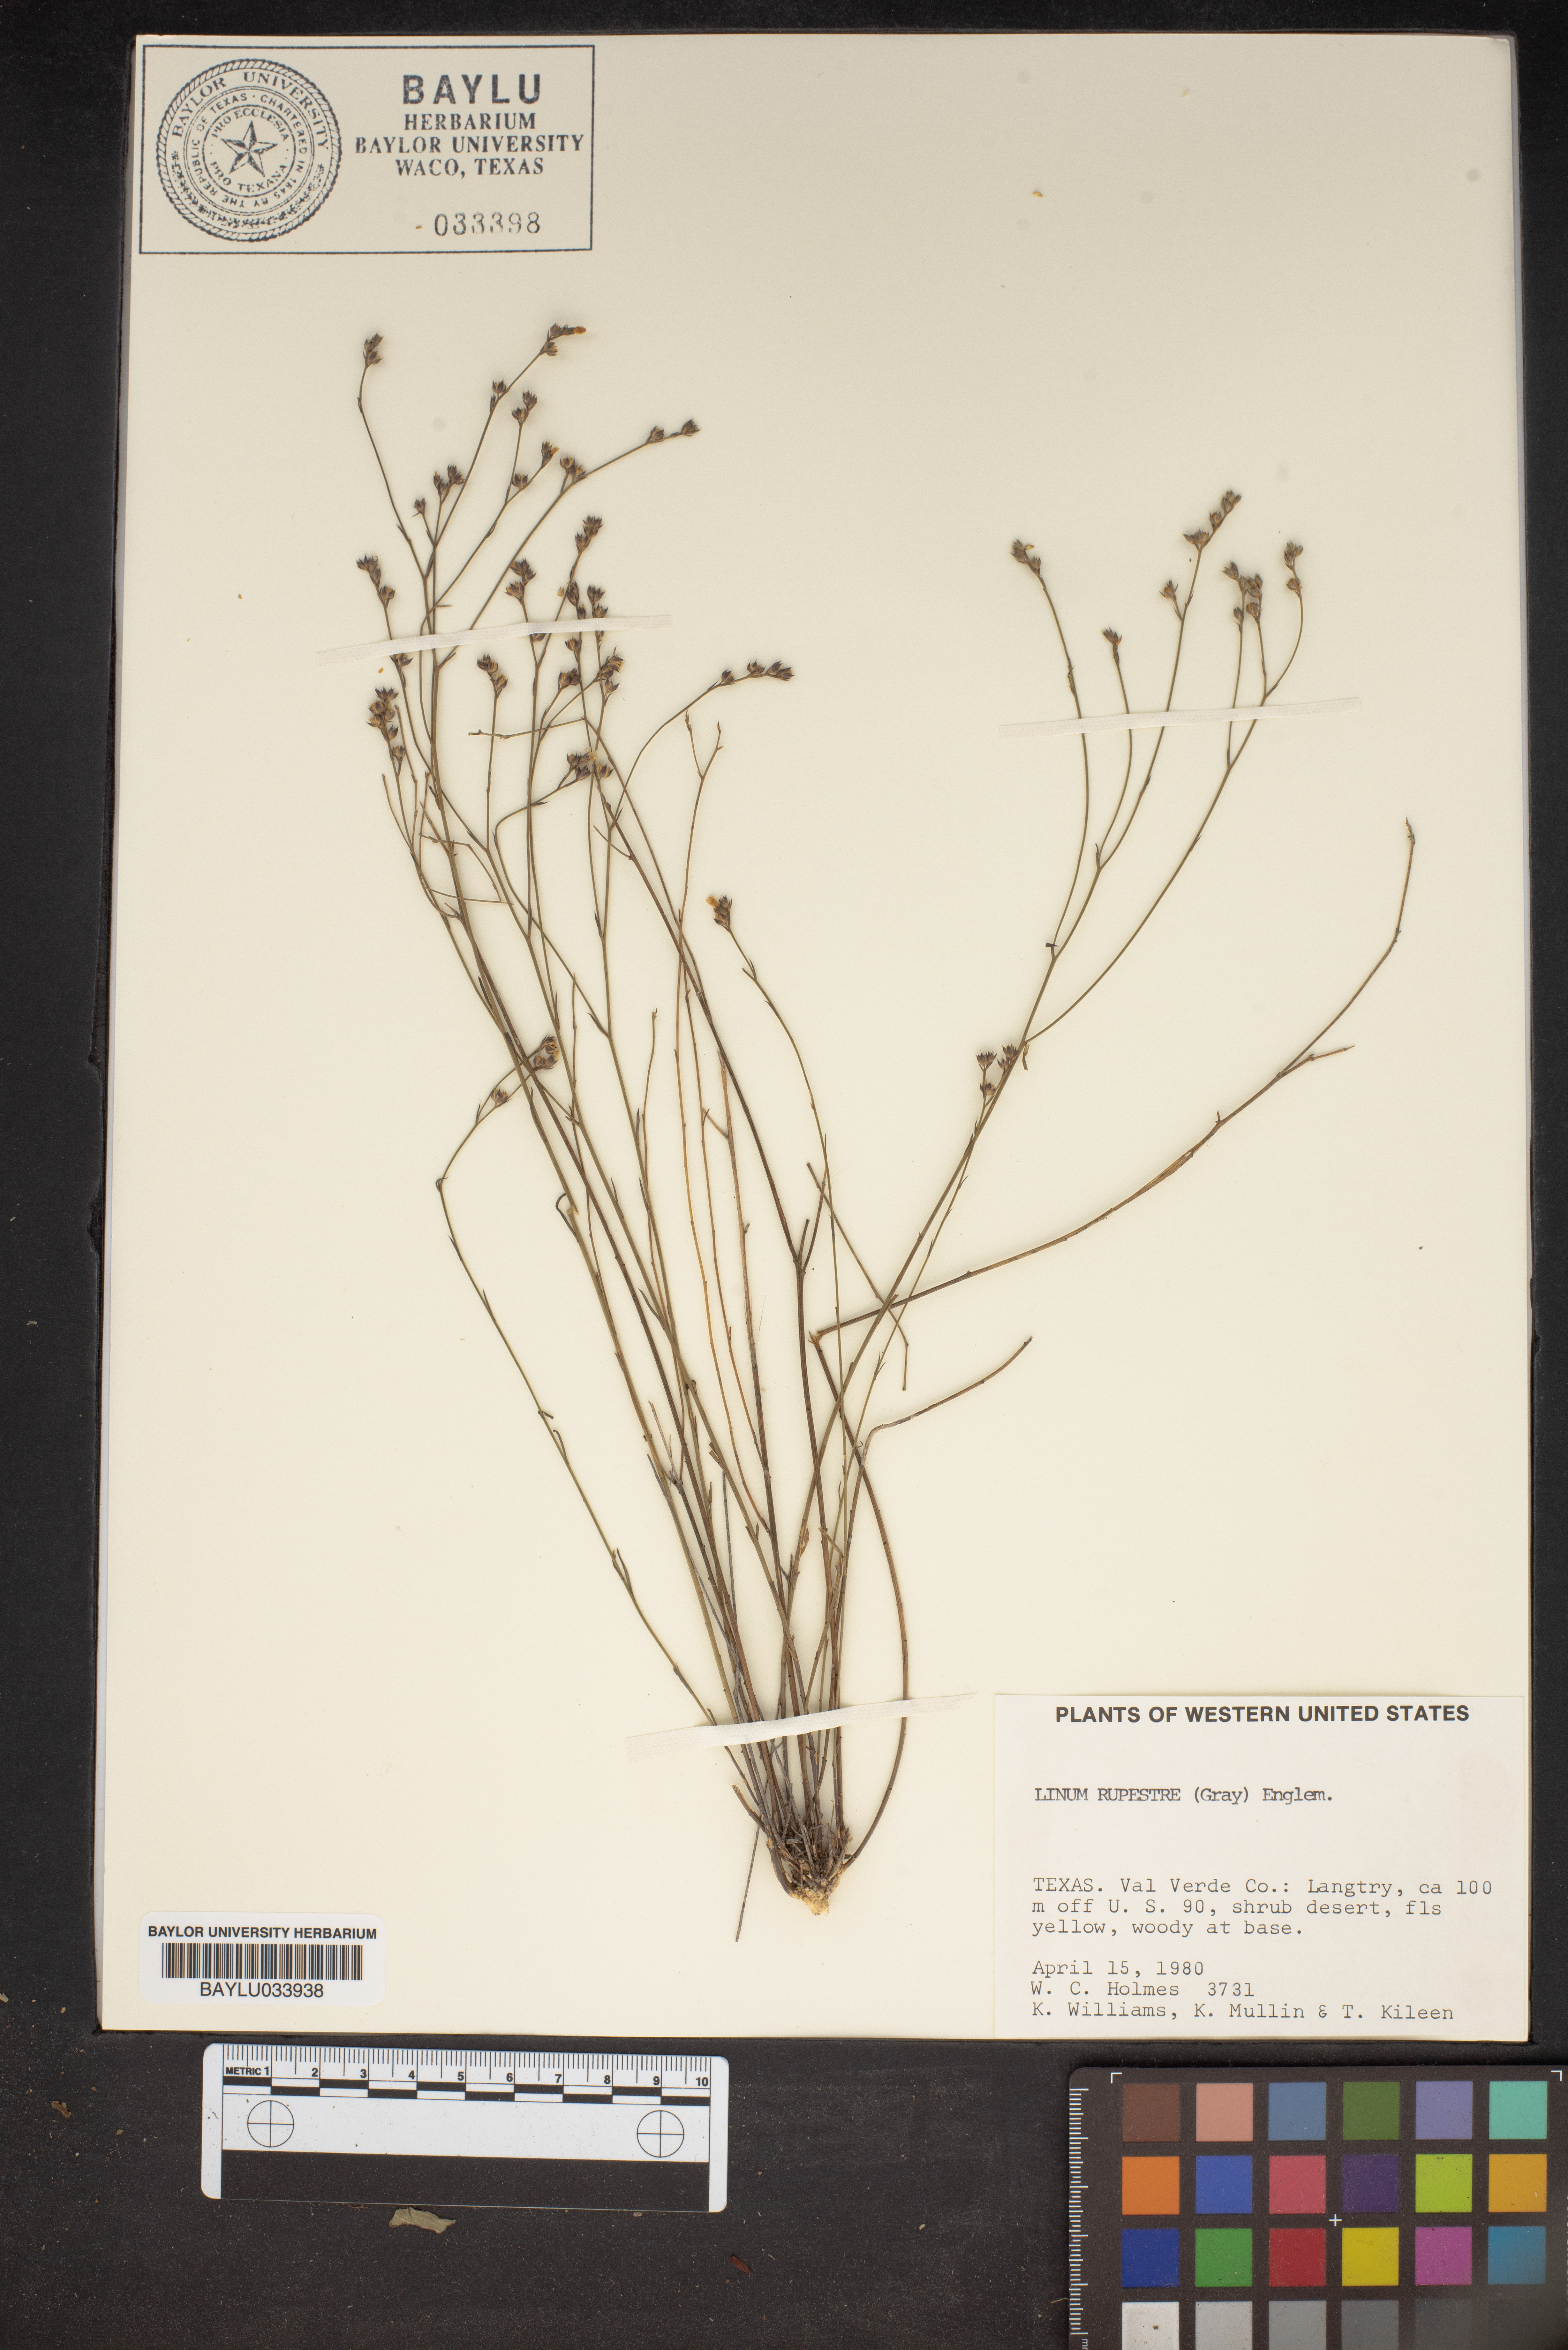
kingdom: Plantae
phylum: Tracheophyta
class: Magnoliopsida
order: Malpighiales
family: Linaceae
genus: Linum
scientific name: Linum rupestre
